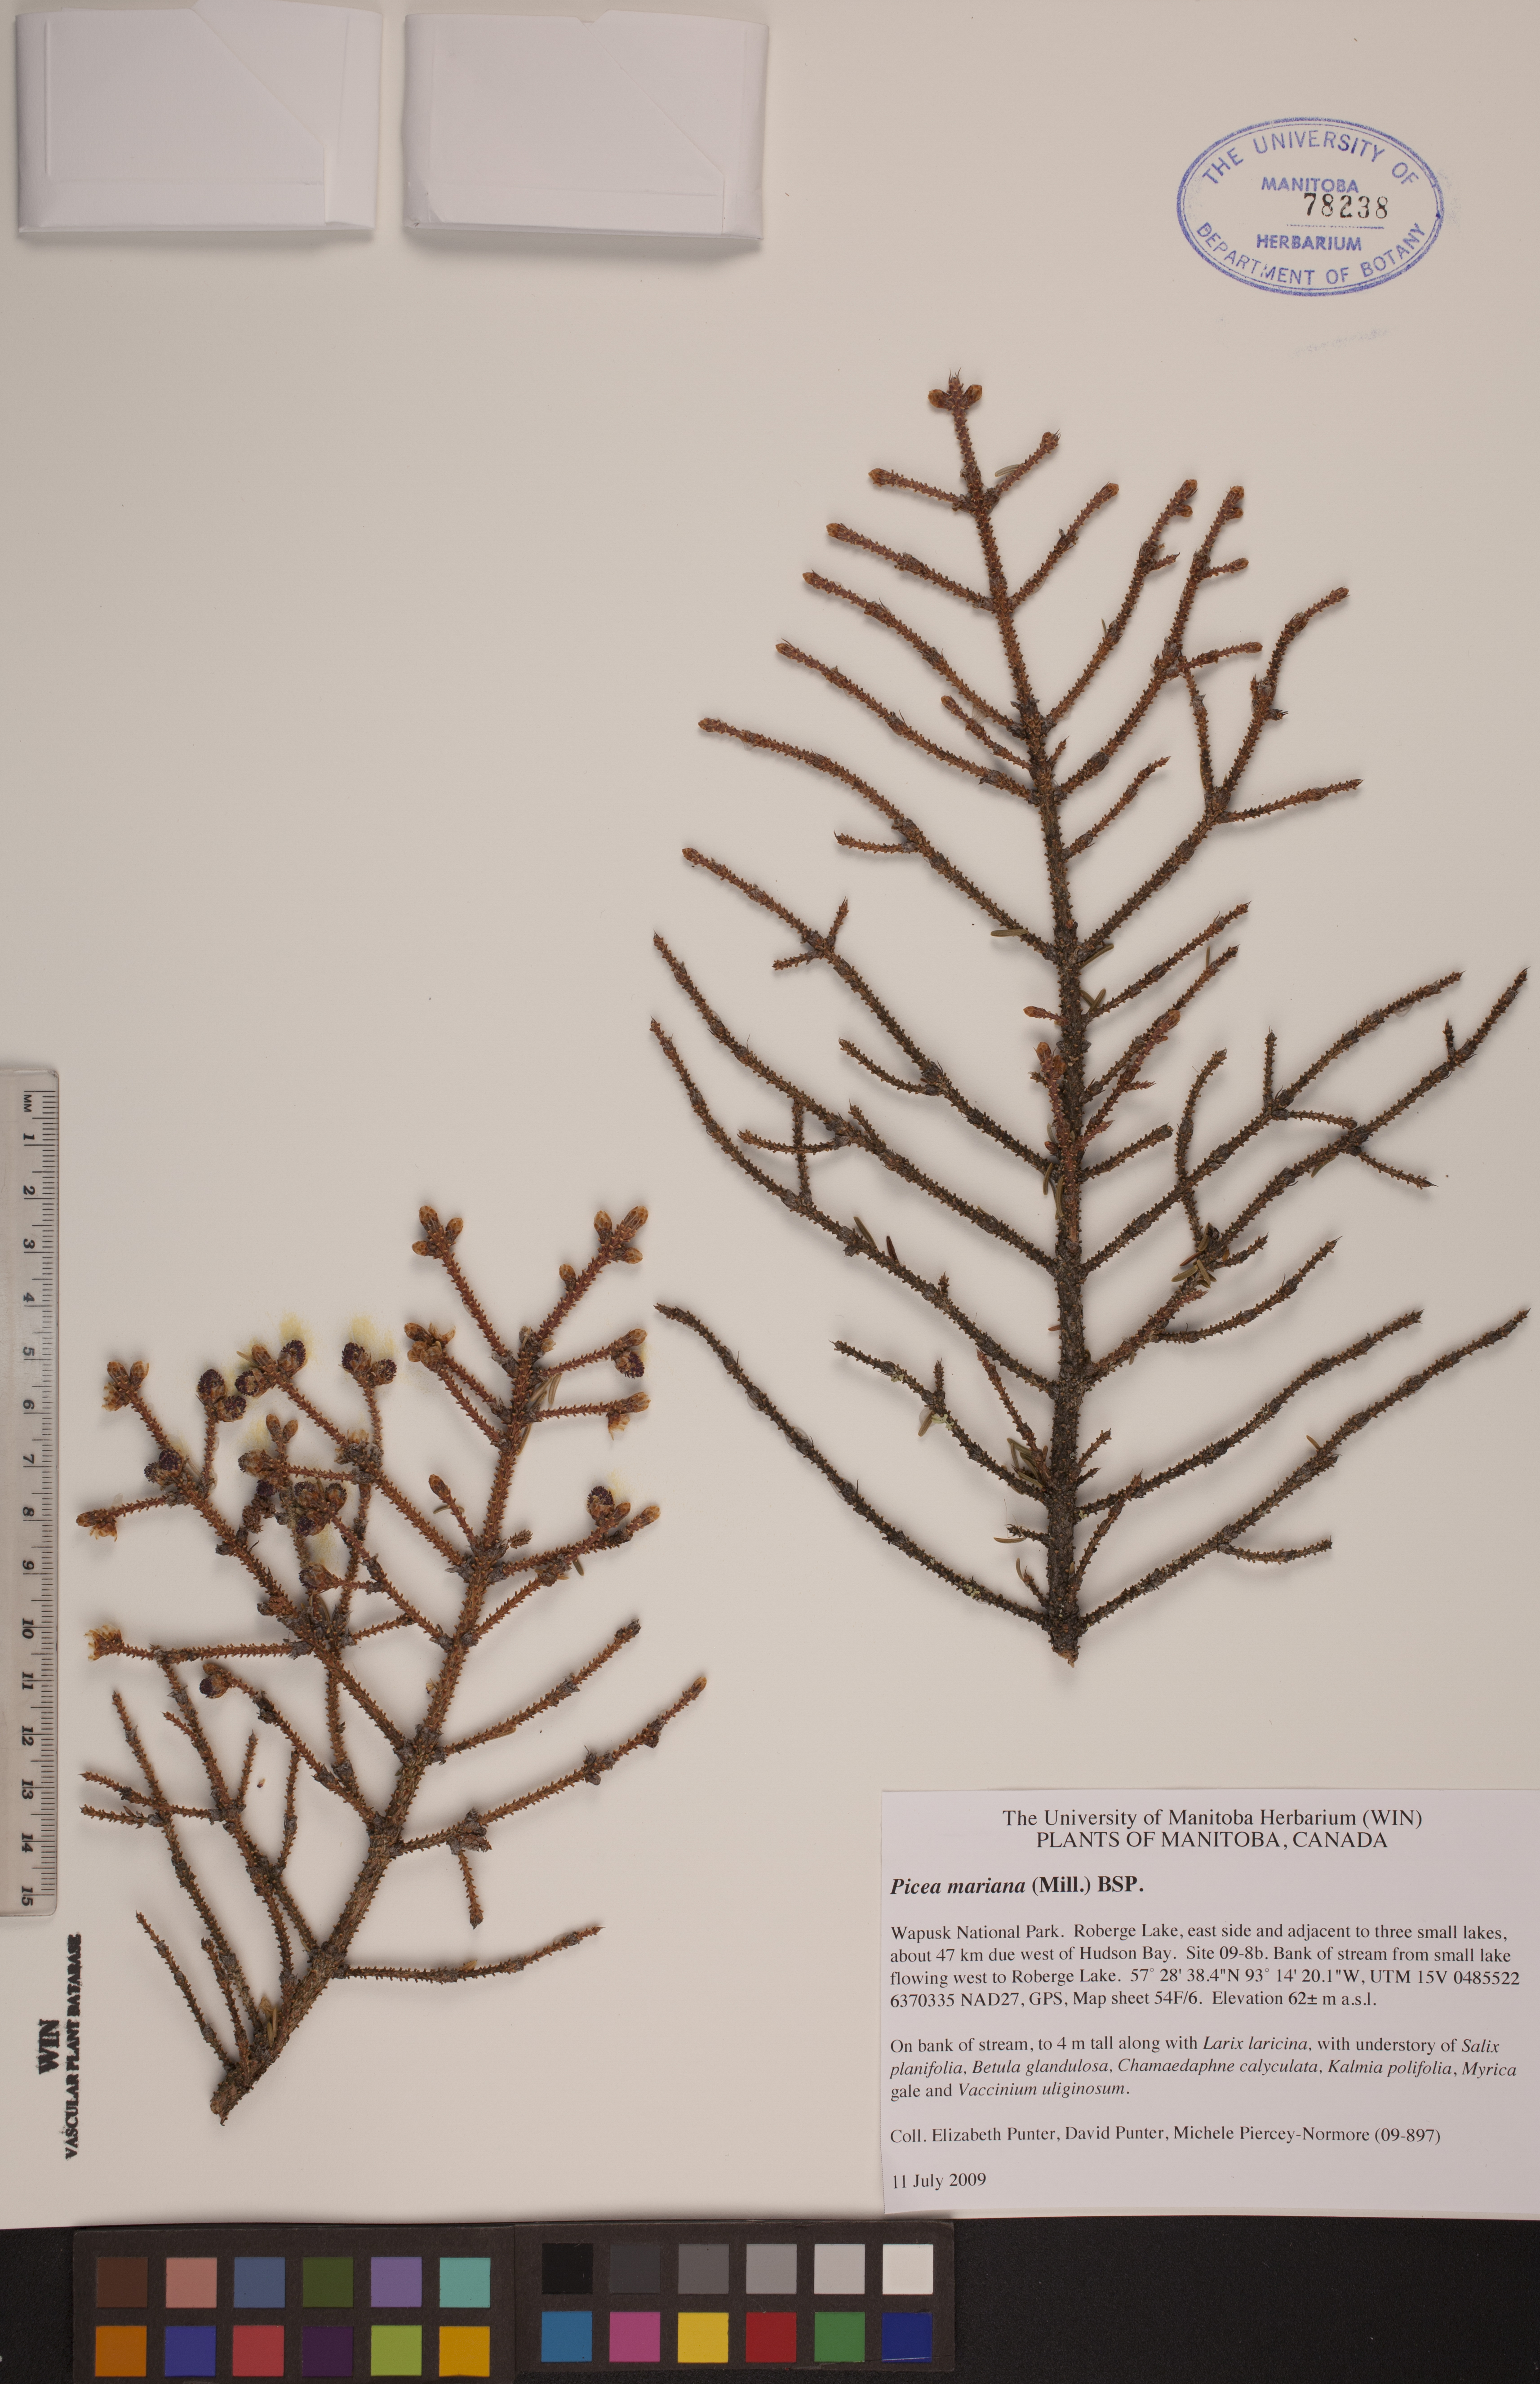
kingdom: Plantae
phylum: Tracheophyta
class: Pinopsida
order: Pinales
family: Pinaceae
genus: Picea
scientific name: Picea mariana
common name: Black spruce
